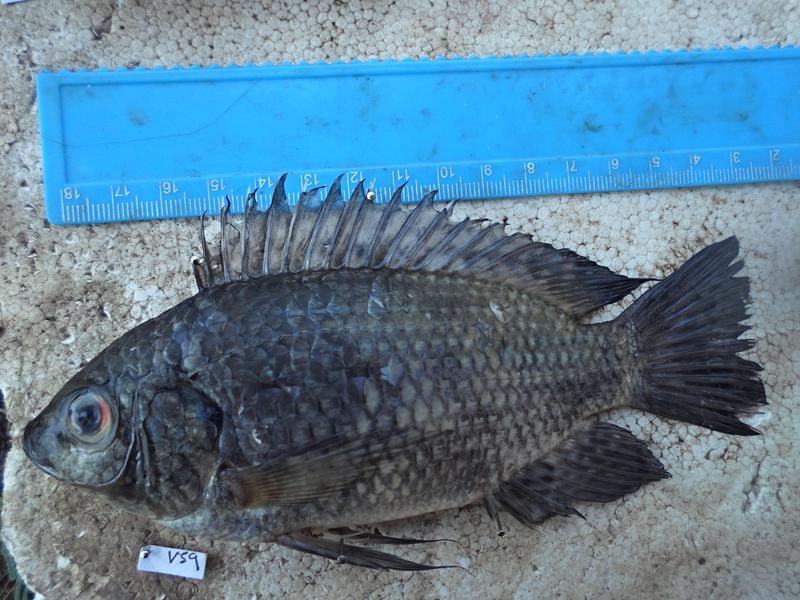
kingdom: Animalia
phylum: Chordata
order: Perciformes
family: Cichlidae
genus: Oreochromis
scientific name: Oreochromis leucostictus
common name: Blue spotted tilapia
